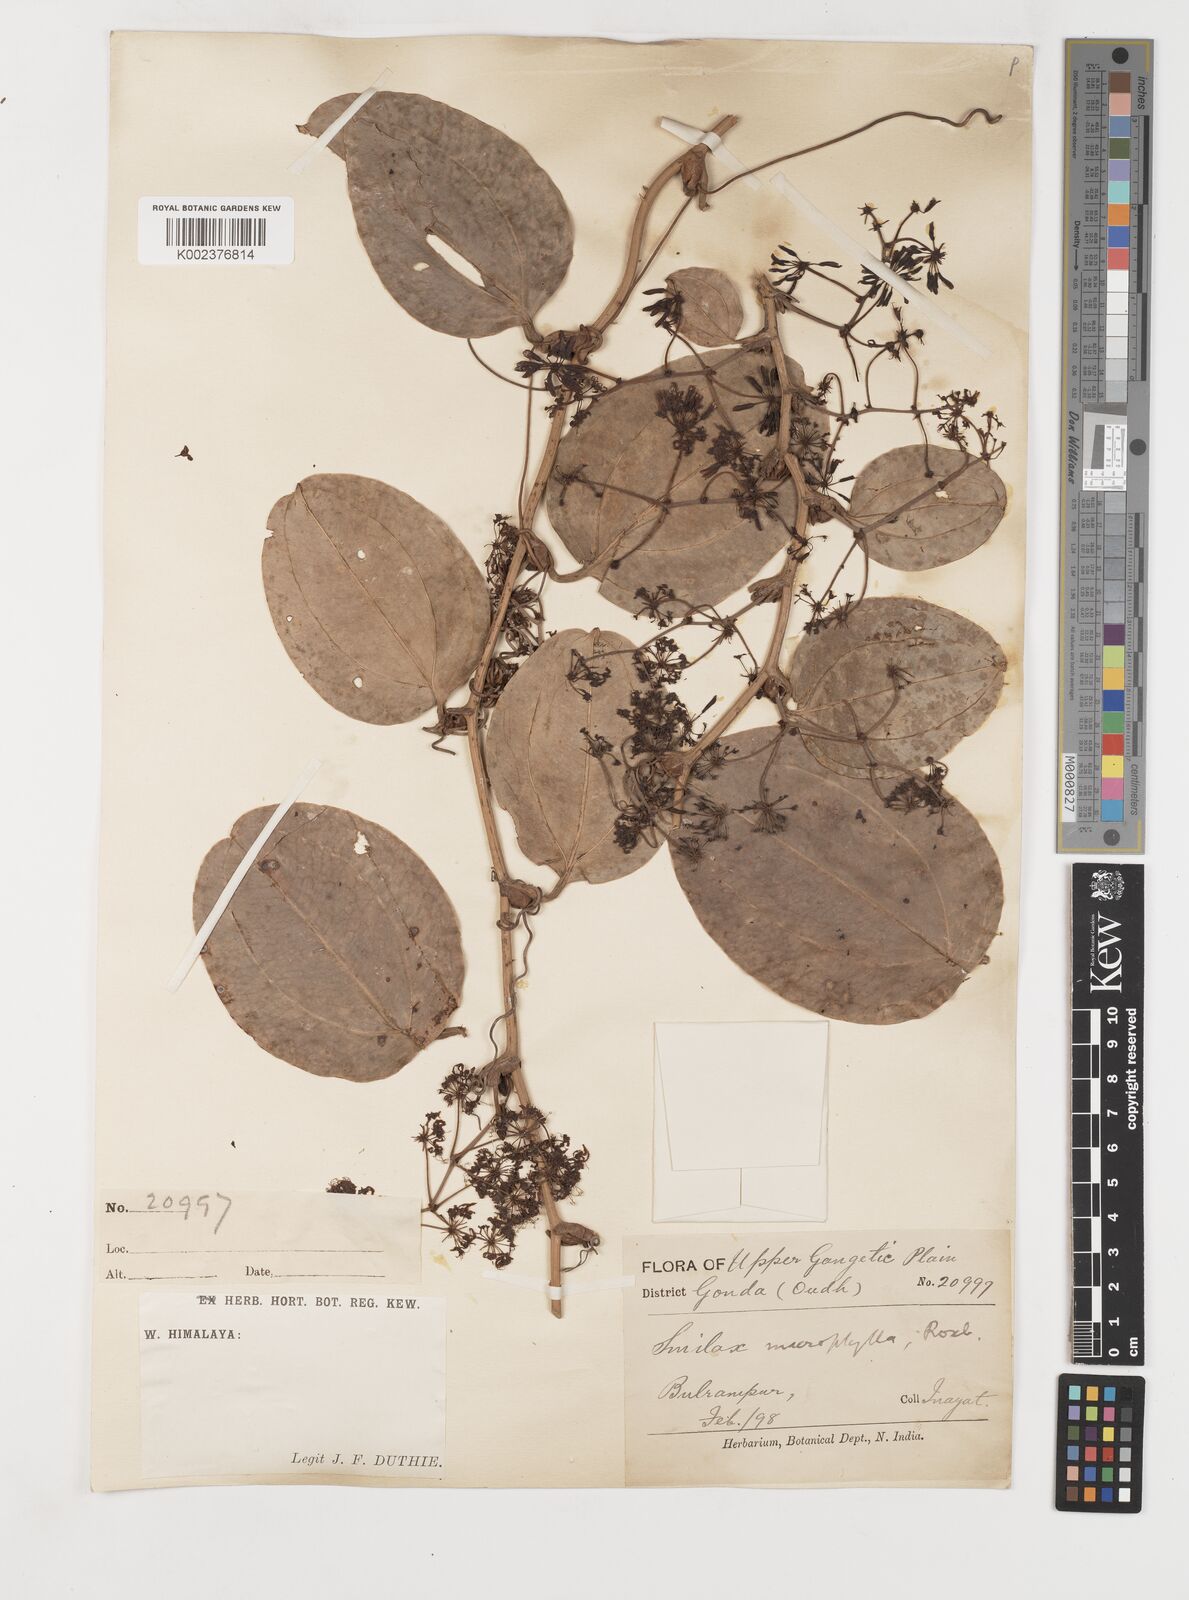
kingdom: Plantae
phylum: Tracheophyta
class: Liliopsida
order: Liliales
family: Smilacaceae
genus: Smilax
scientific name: Smilax prolifera
